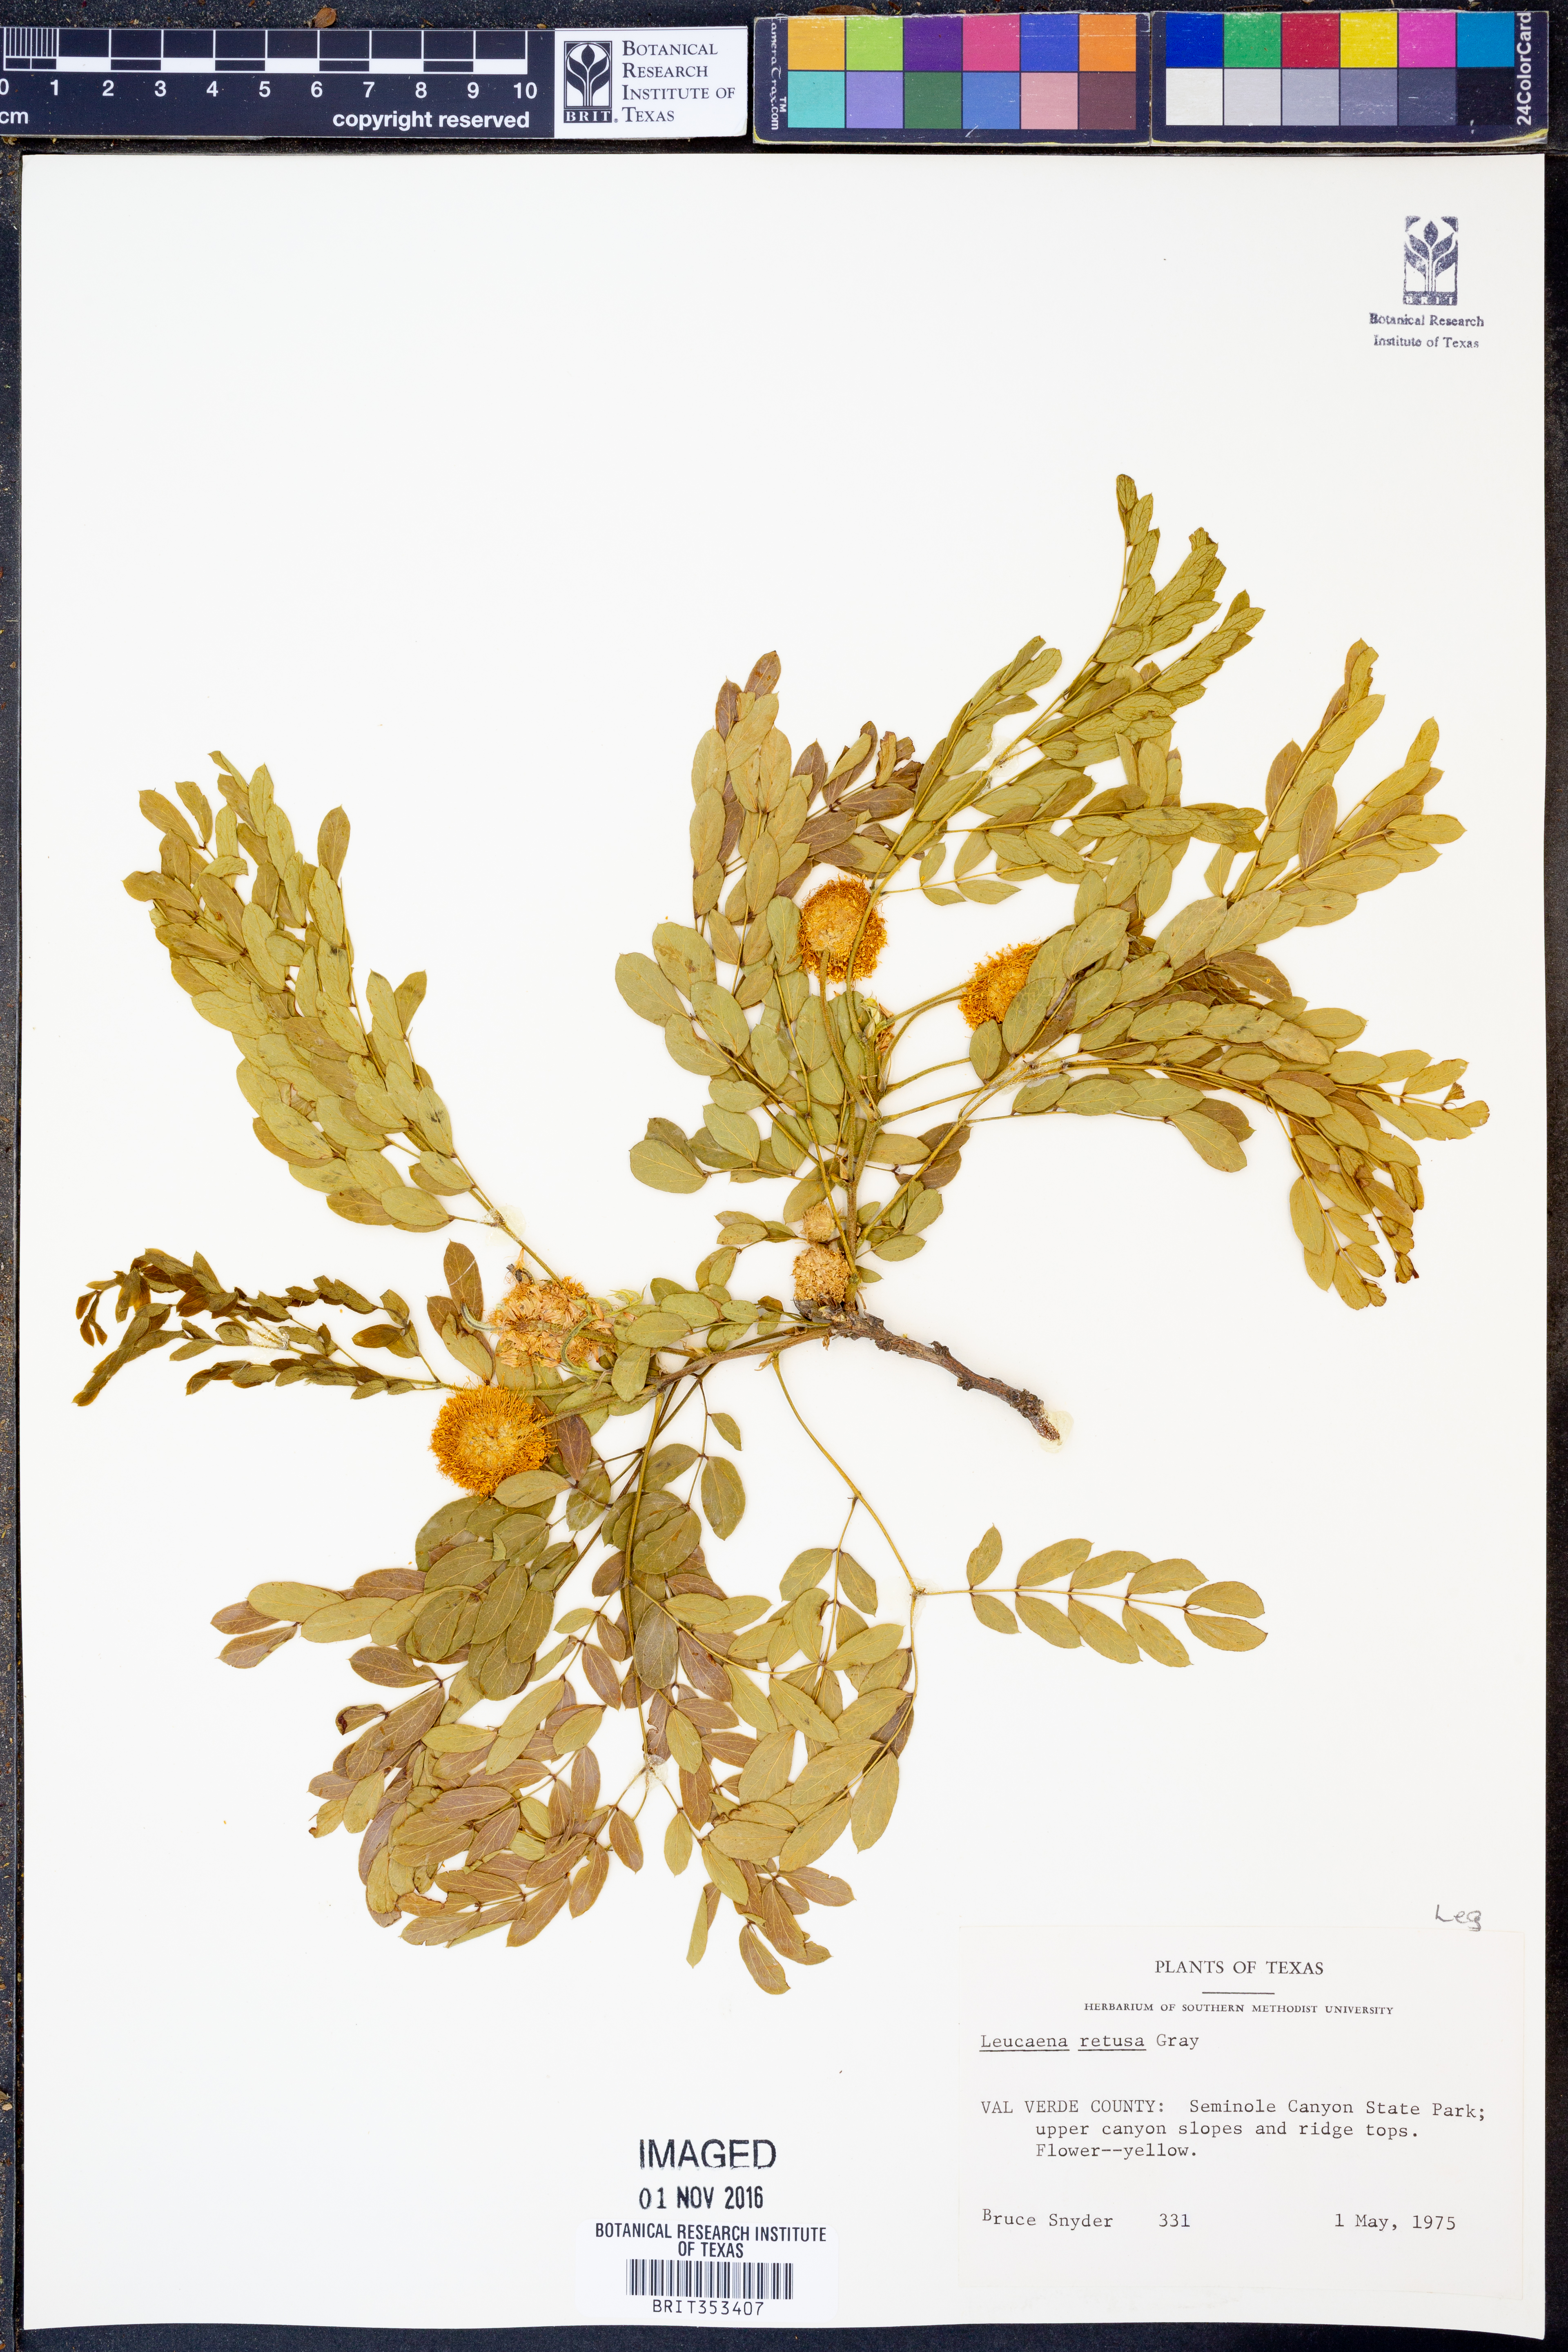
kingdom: Plantae
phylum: Tracheophyta
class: Magnoliopsida
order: Fabales
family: Fabaceae
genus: Leucaena
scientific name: Leucaena retusa
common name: Littleleaf leadtree
